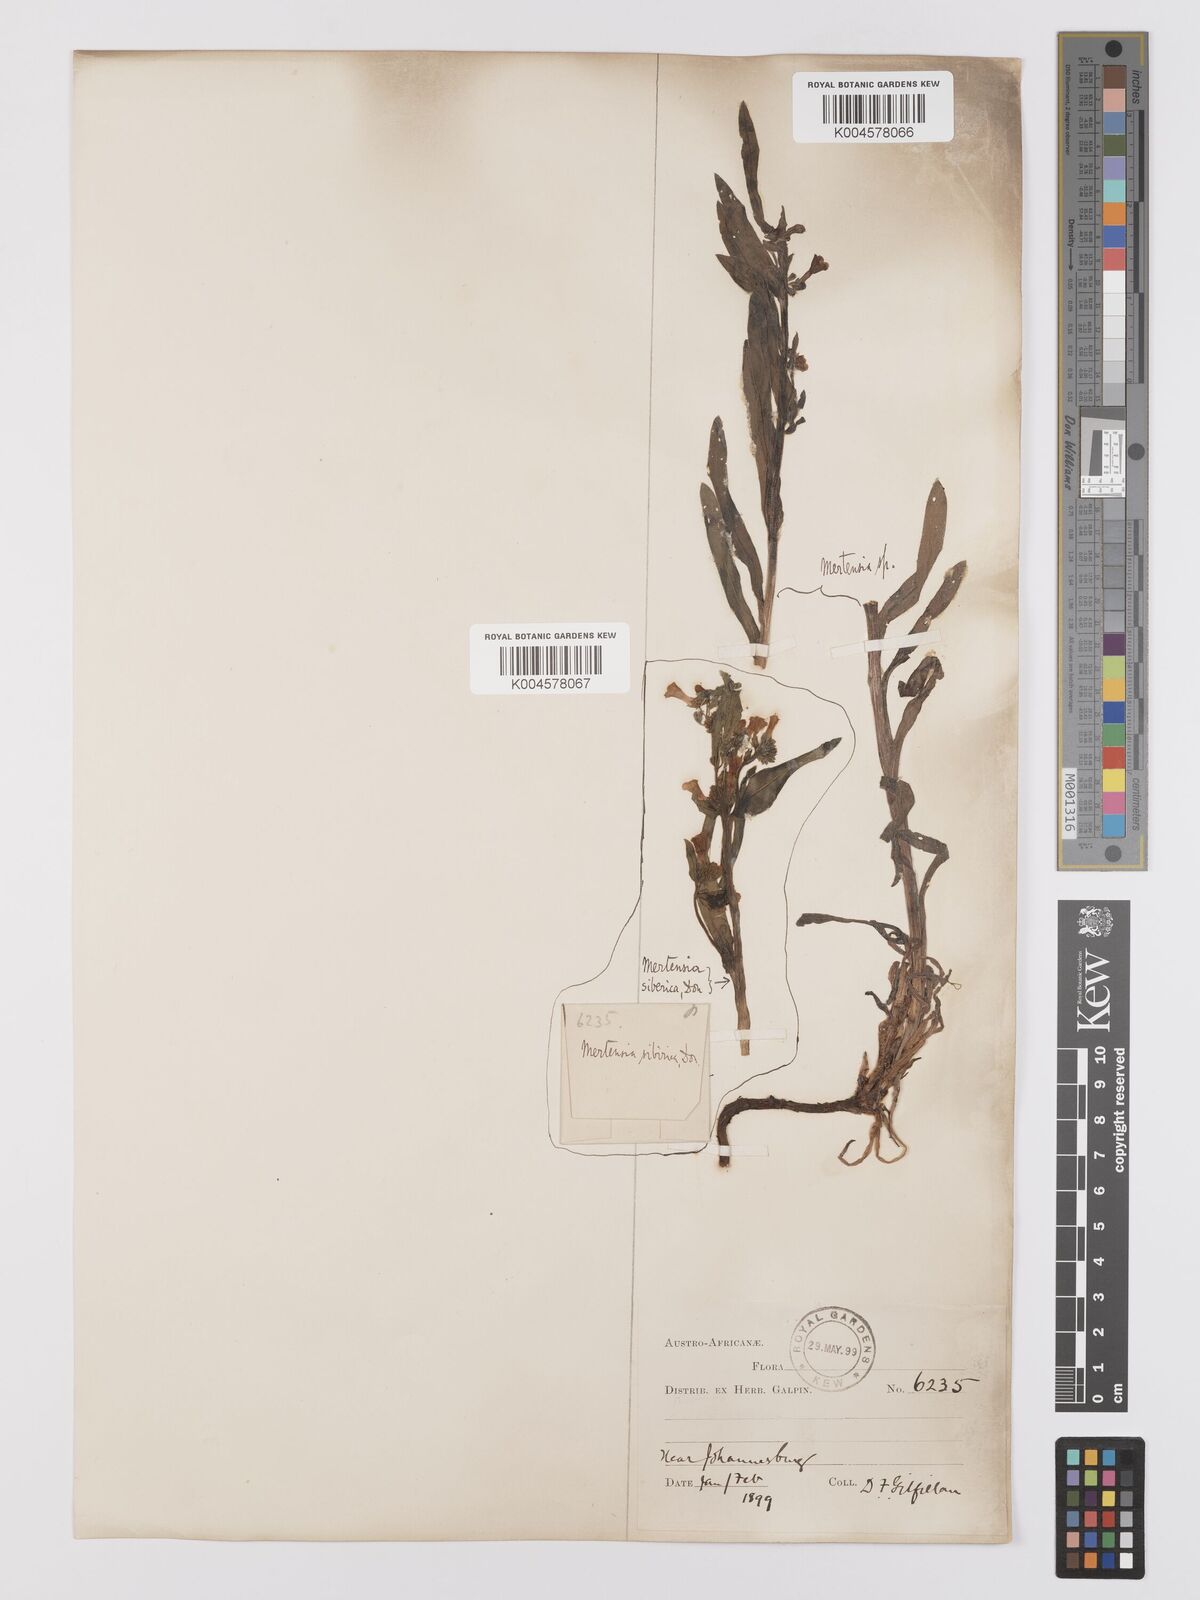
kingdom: Plantae
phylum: Tracheophyta
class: Magnoliopsida
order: Boraginales
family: Boraginaceae
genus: Anchusa
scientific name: Anchusa capensis
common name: Cape bugloss
